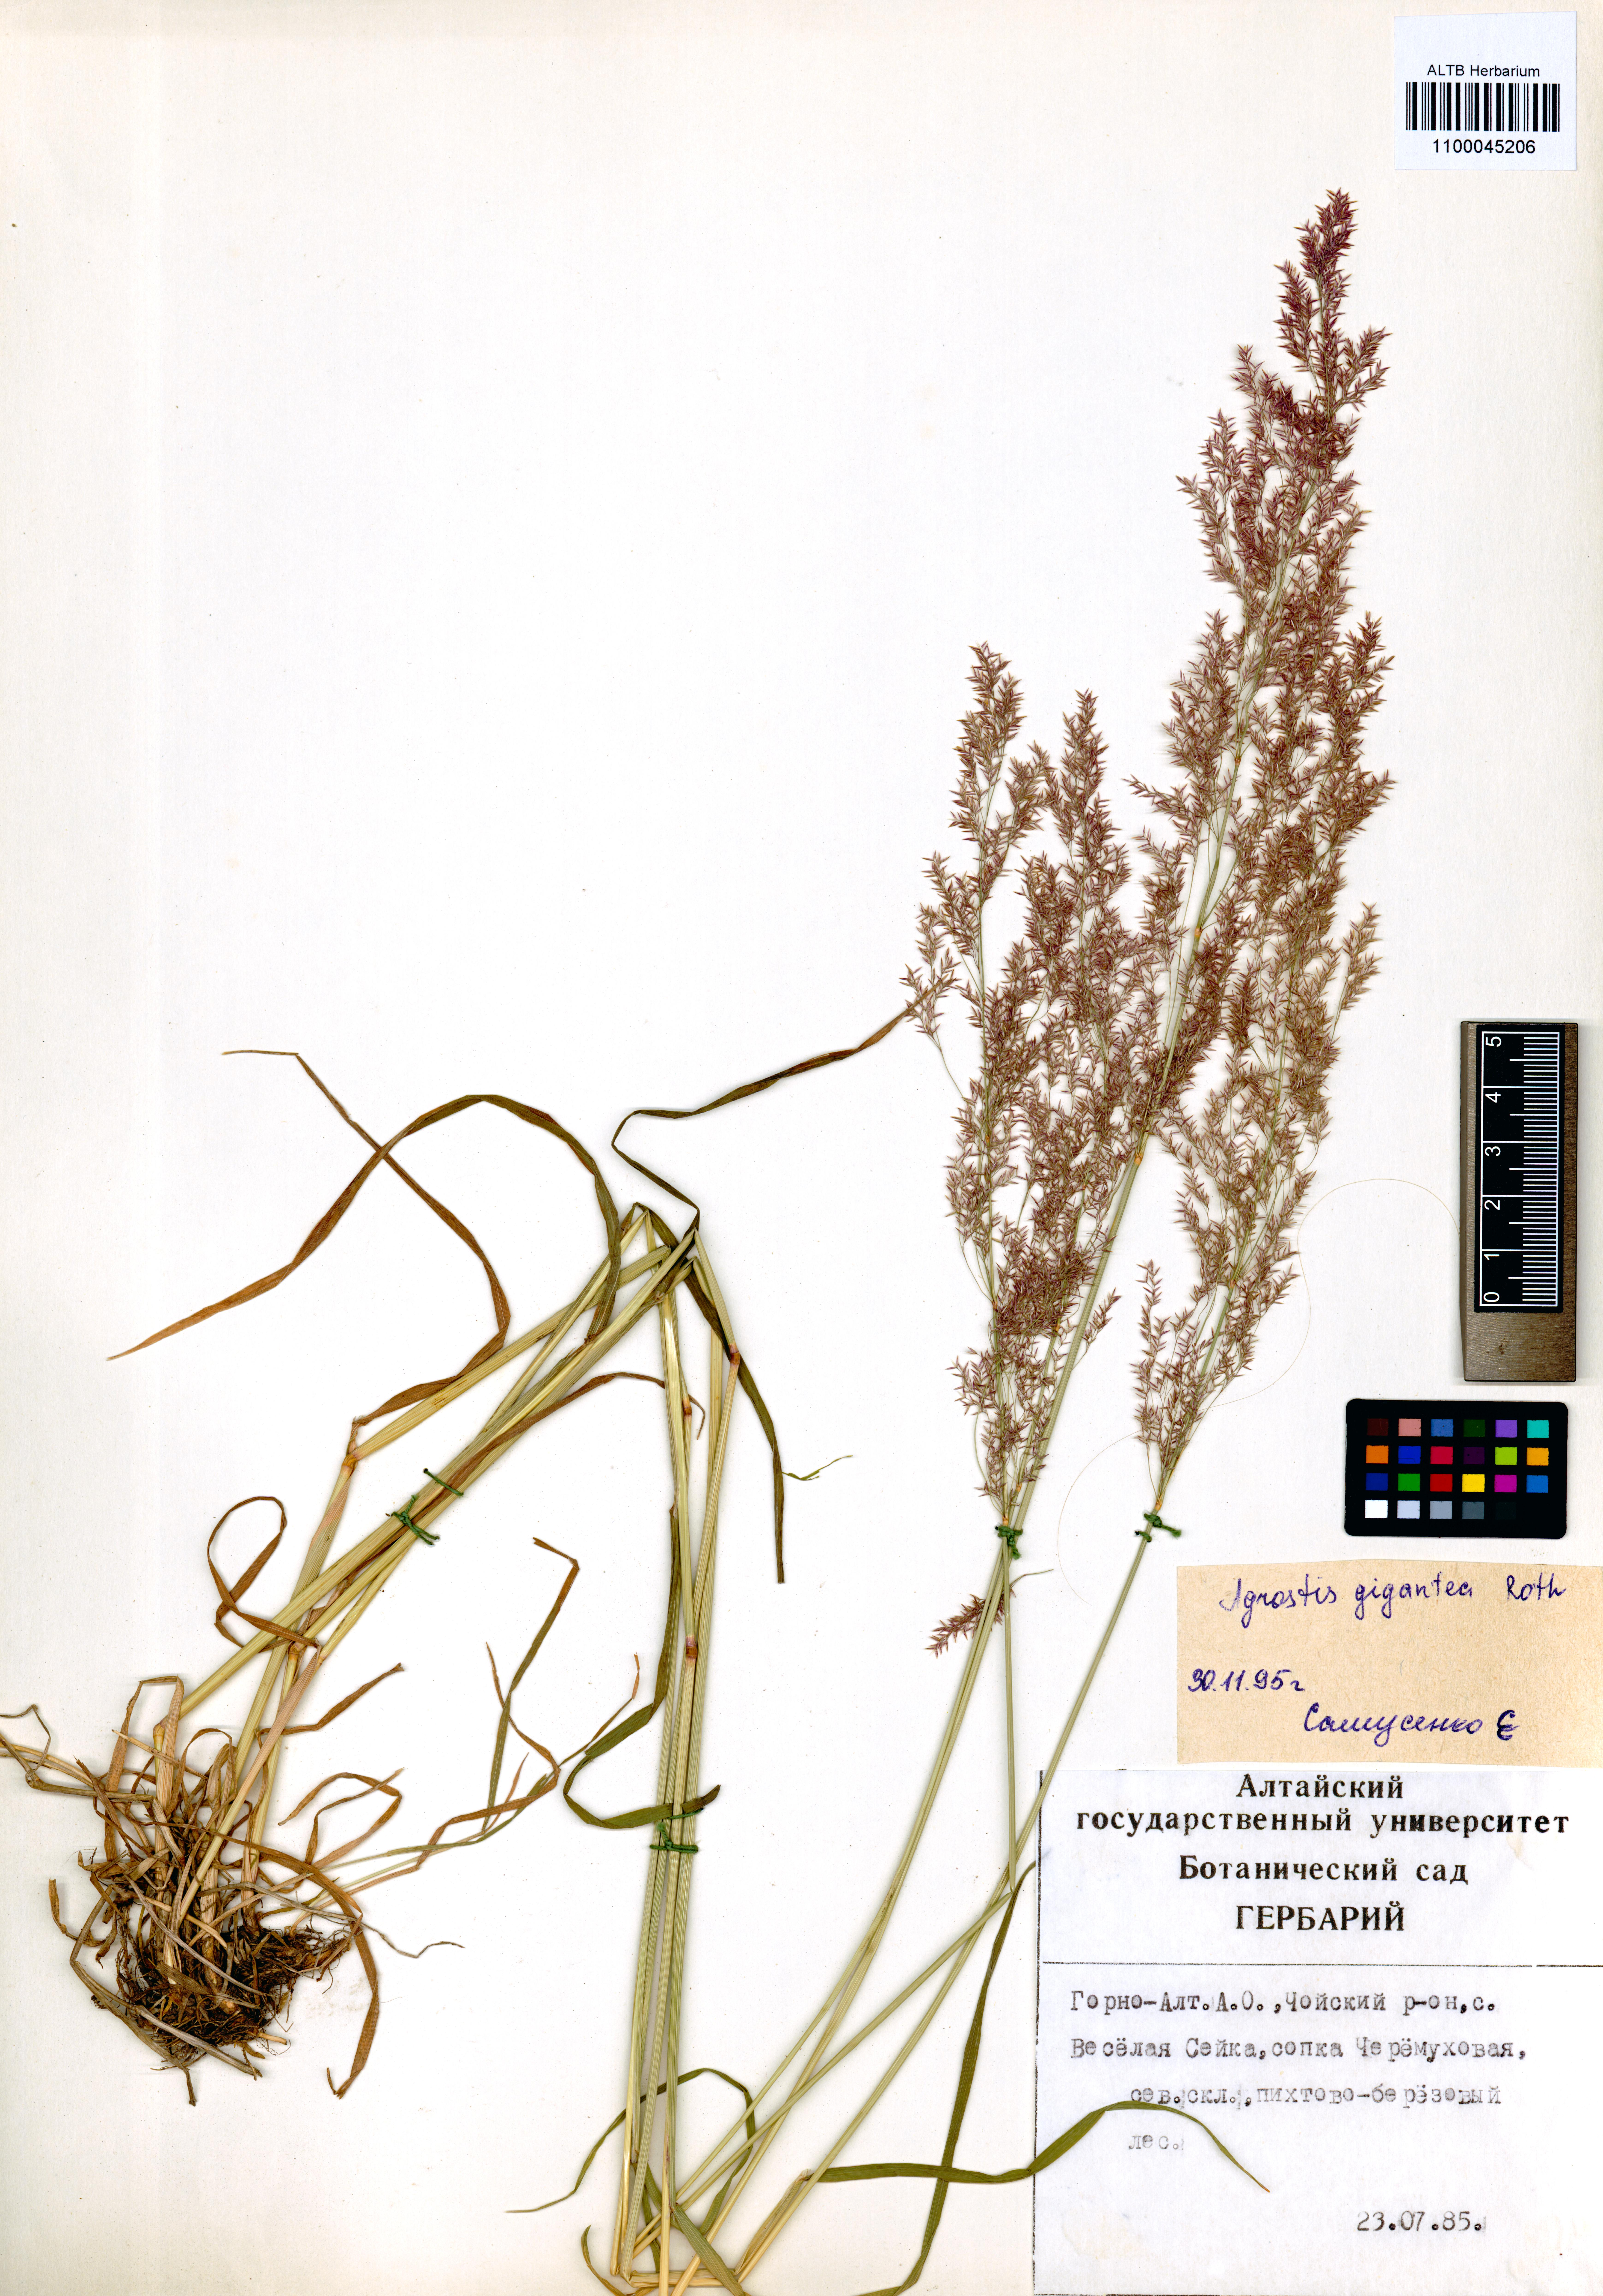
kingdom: Plantae
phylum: Tracheophyta
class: Liliopsida
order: Poales
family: Poaceae
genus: Agrostis
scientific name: Agrostis gigantea
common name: Black bent
